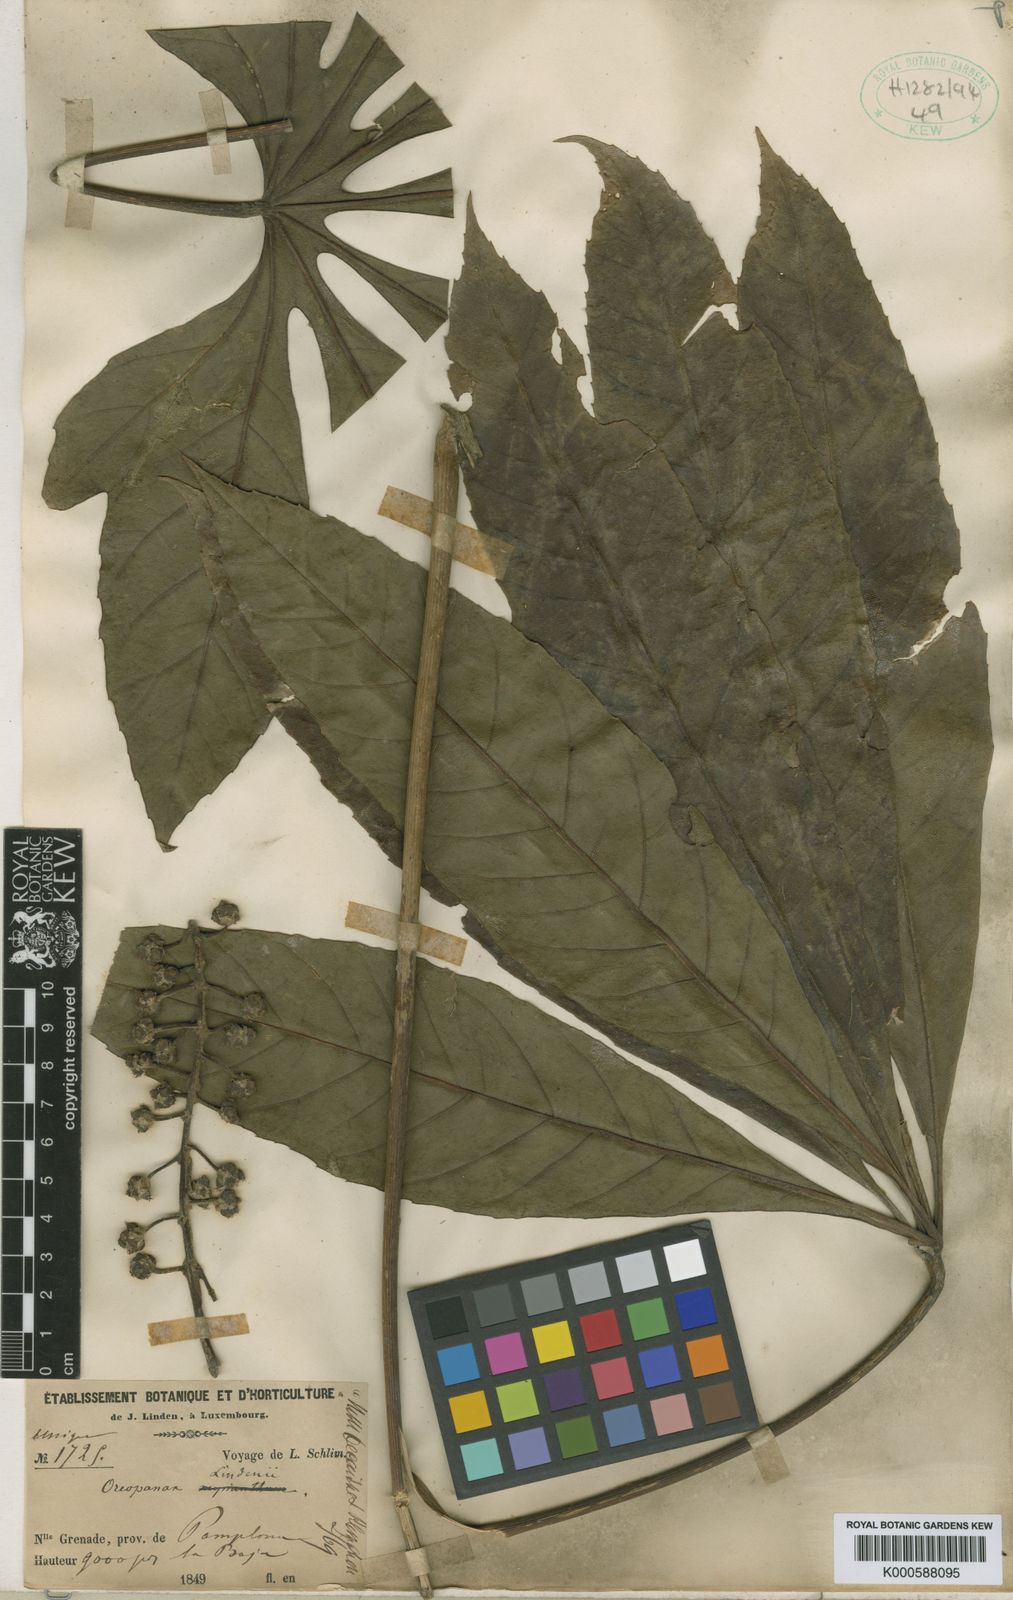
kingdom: Plantae
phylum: Tracheophyta
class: Magnoliopsida
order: Apiales
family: Araliaceae
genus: Oreopanax
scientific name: Oreopanax
